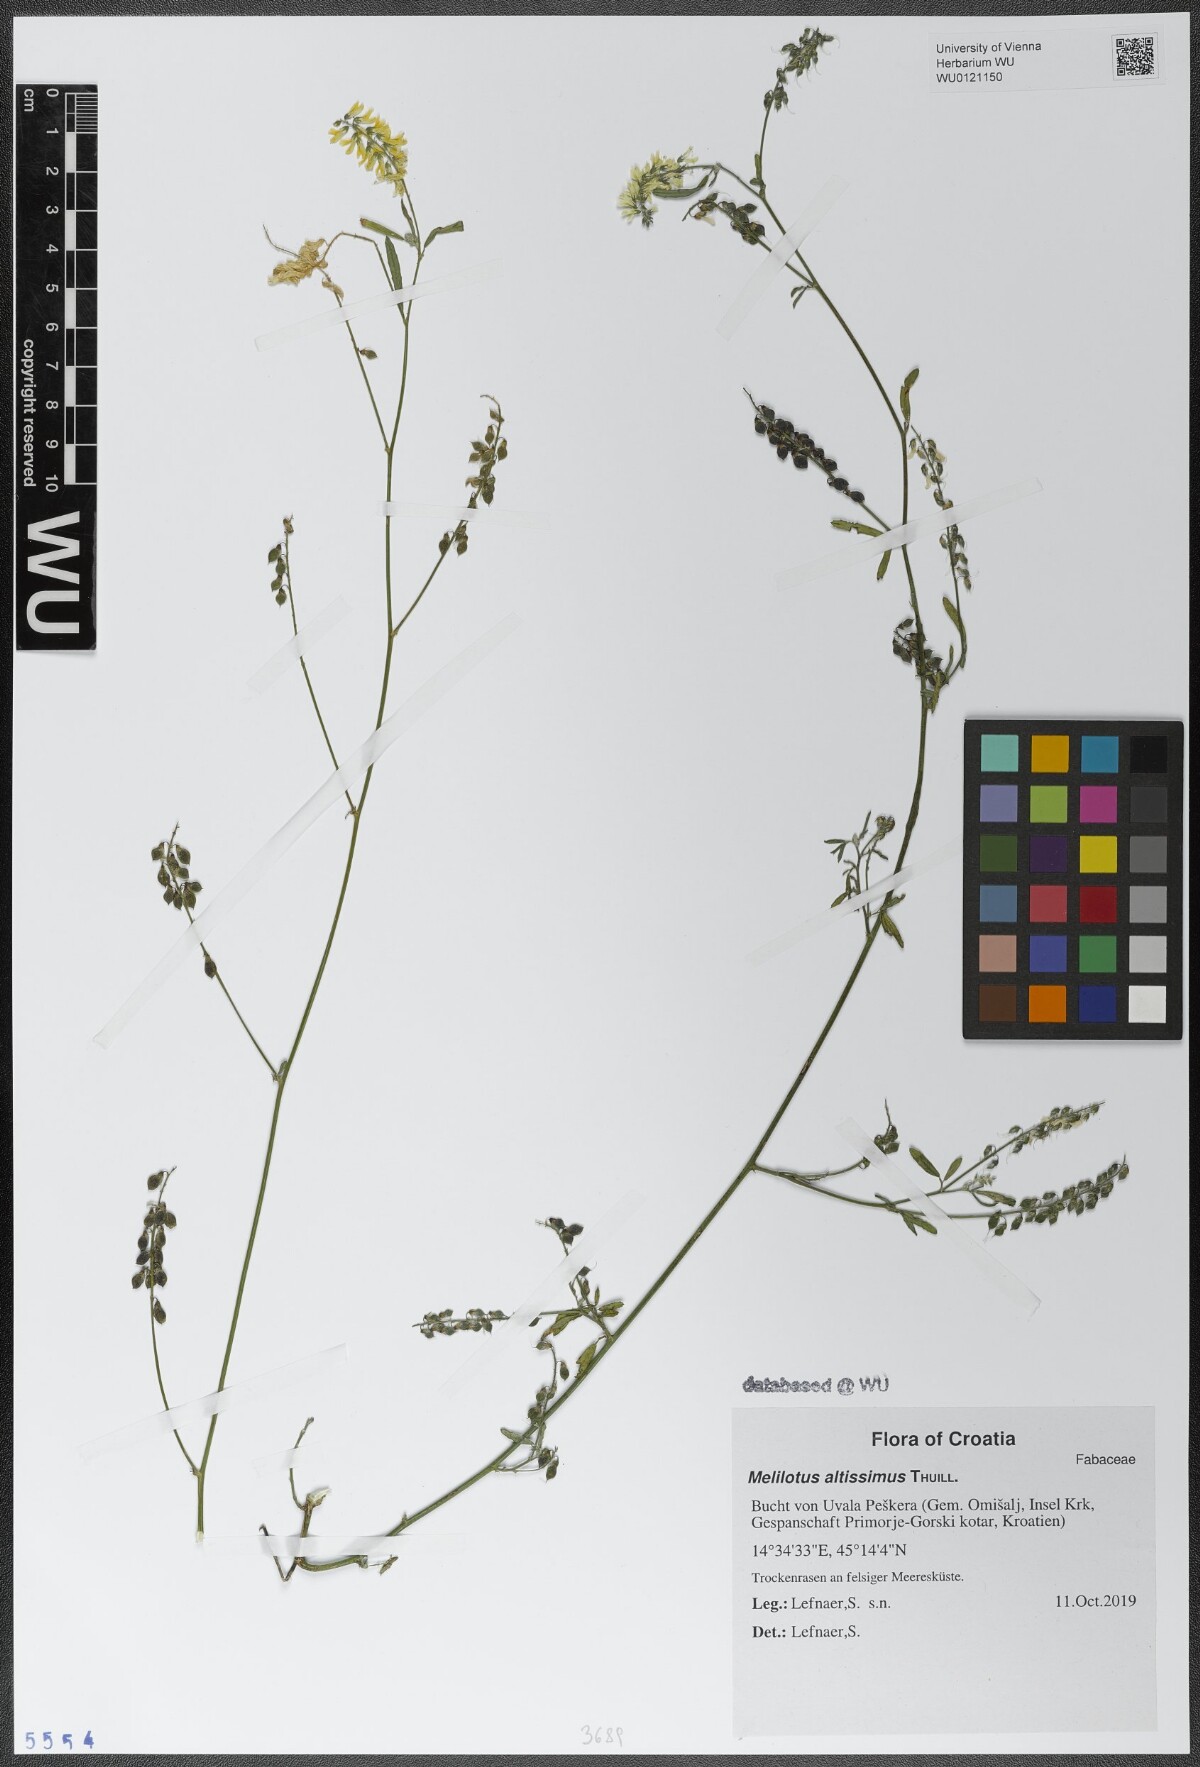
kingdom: Plantae
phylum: Tracheophyta
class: Magnoliopsida
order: Fabales
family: Fabaceae
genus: Melilotus
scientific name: Melilotus altissimus
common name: Tall melilot
